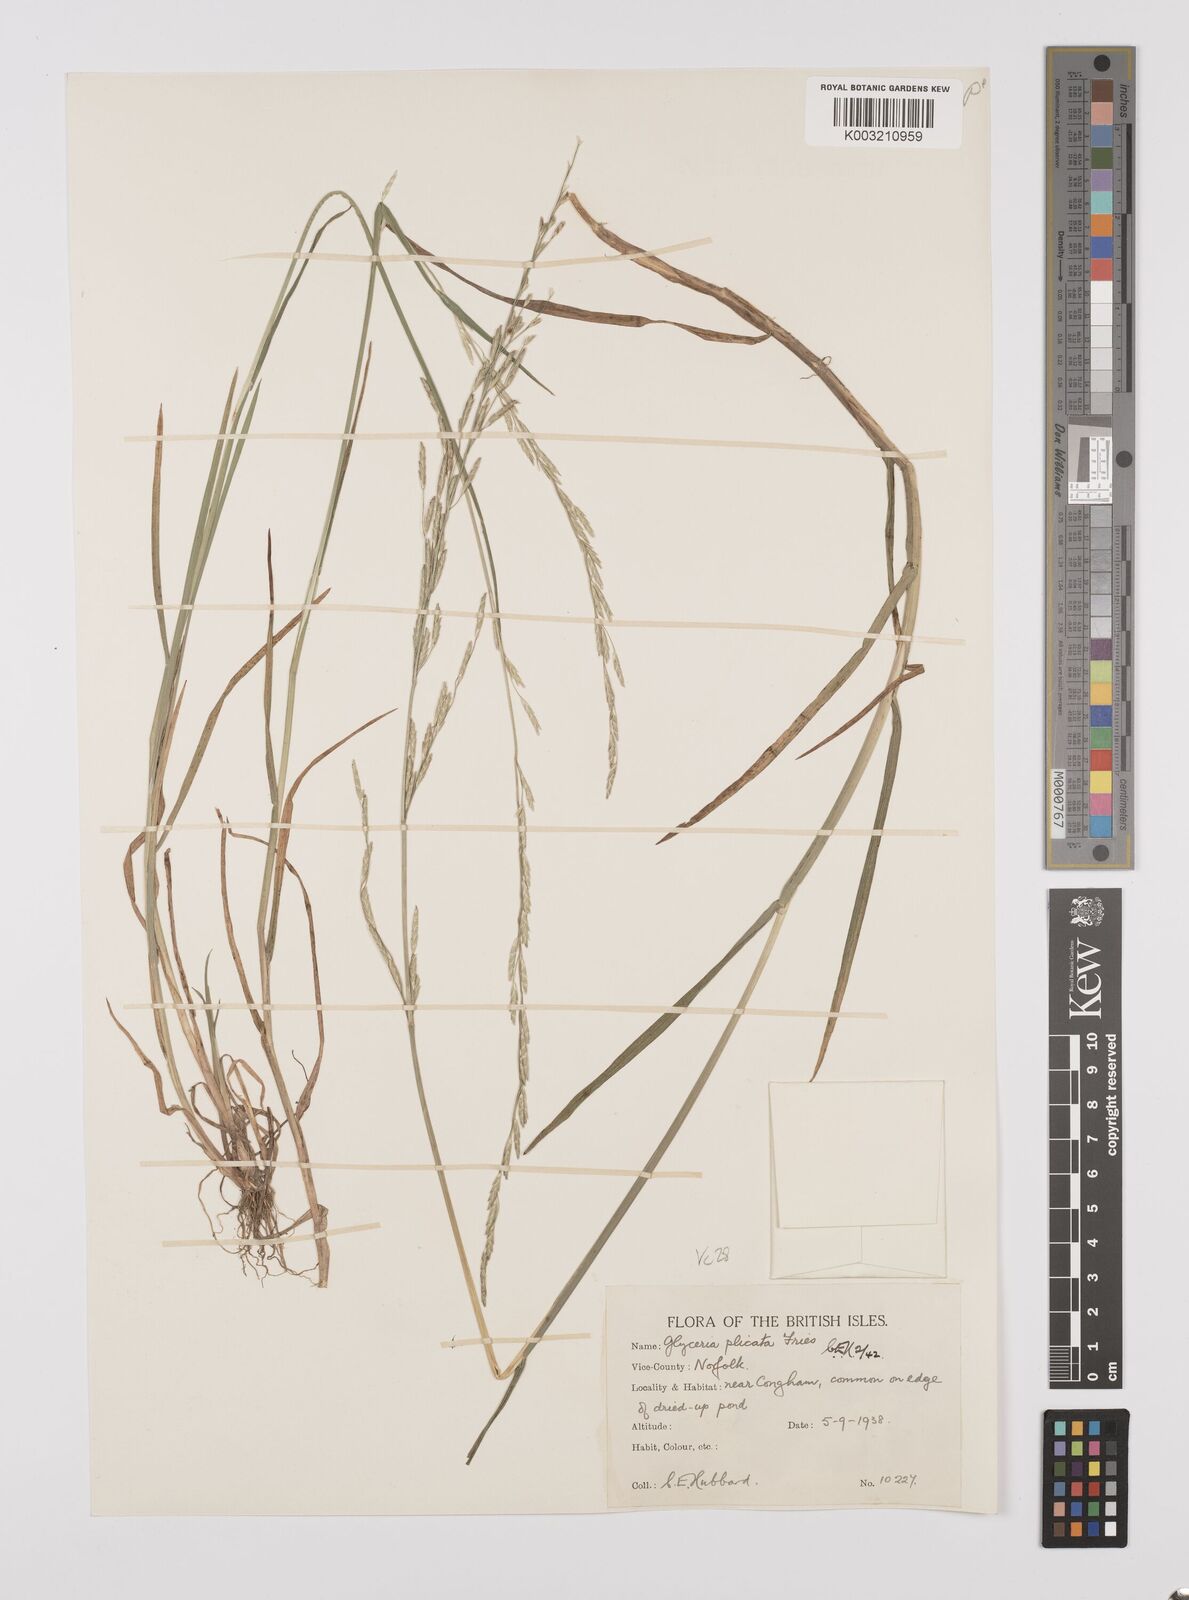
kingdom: Plantae
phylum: Tracheophyta
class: Liliopsida
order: Poales
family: Poaceae
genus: Glyceria
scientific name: Glyceria notata
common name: Plicate sweet-grass
